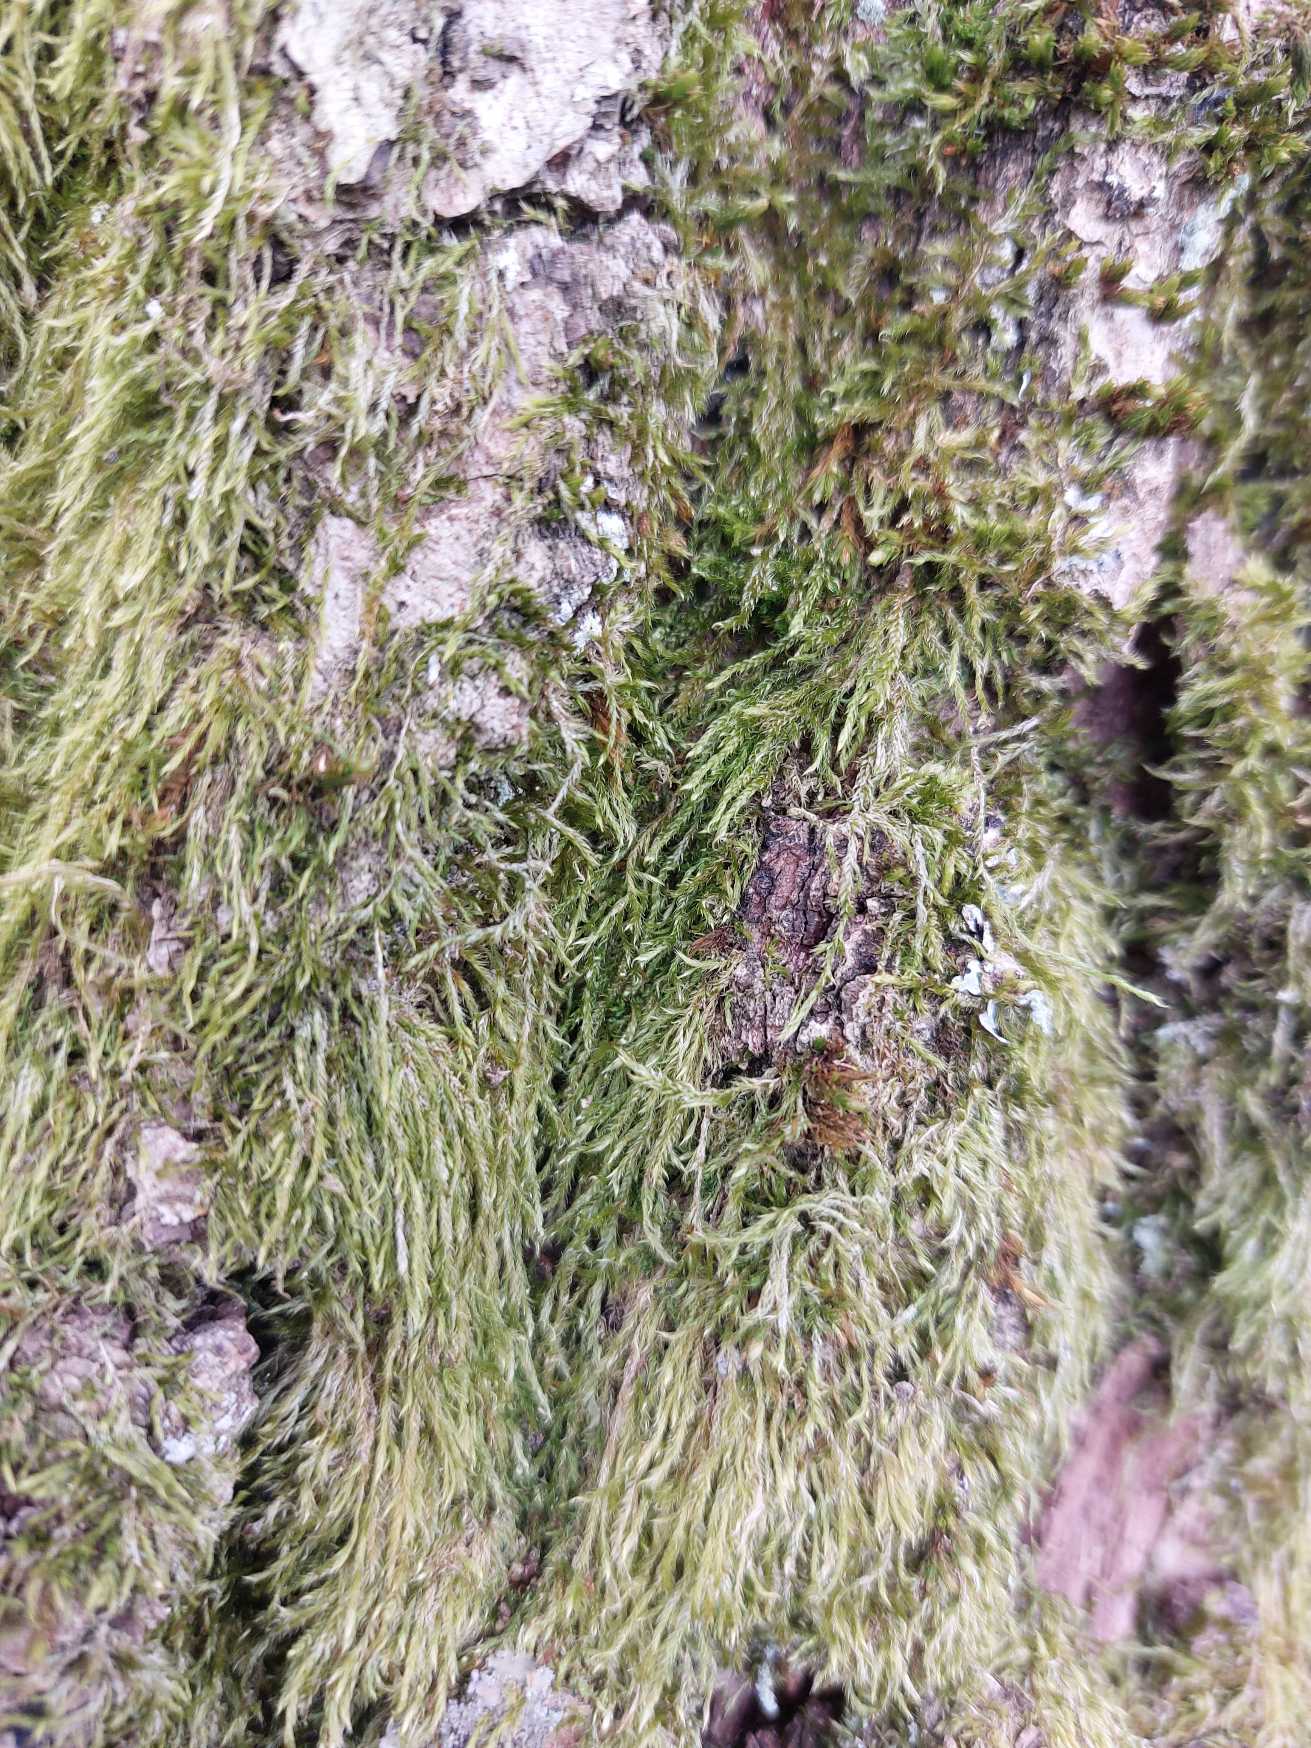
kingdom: Plantae
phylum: Bryophyta
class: Bryopsida
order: Hypnales
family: Hypnaceae
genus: Hypnum
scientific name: Hypnum
